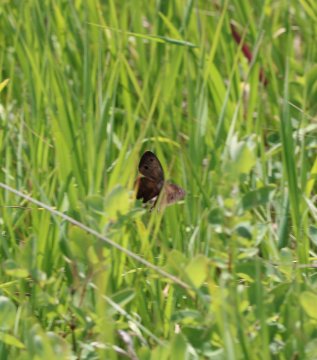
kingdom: Animalia
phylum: Arthropoda
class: Insecta
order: Lepidoptera
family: Nymphalidae
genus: Cercyonis
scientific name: Cercyonis pegala
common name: Common Wood-Nymph
